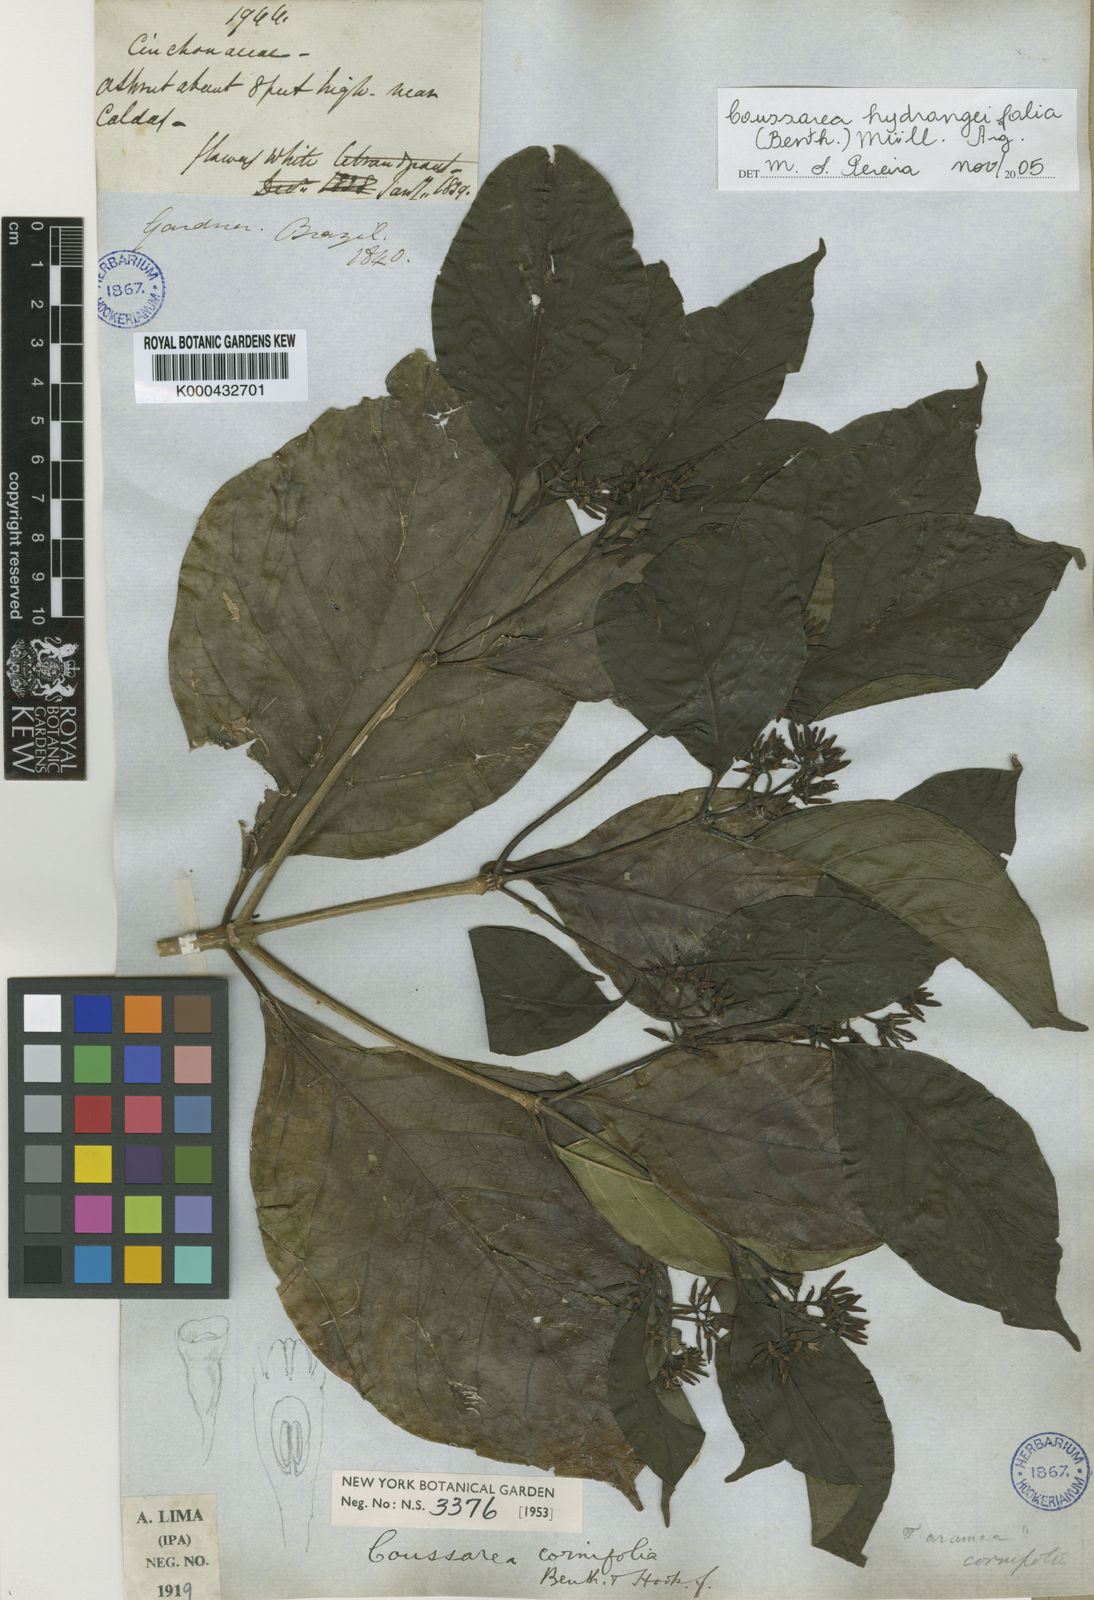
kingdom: Plantae
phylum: Tracheophyta
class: Magnoliopsida
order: Gentianales
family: Rubiaceae
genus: Coussarea
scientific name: Coussarea
